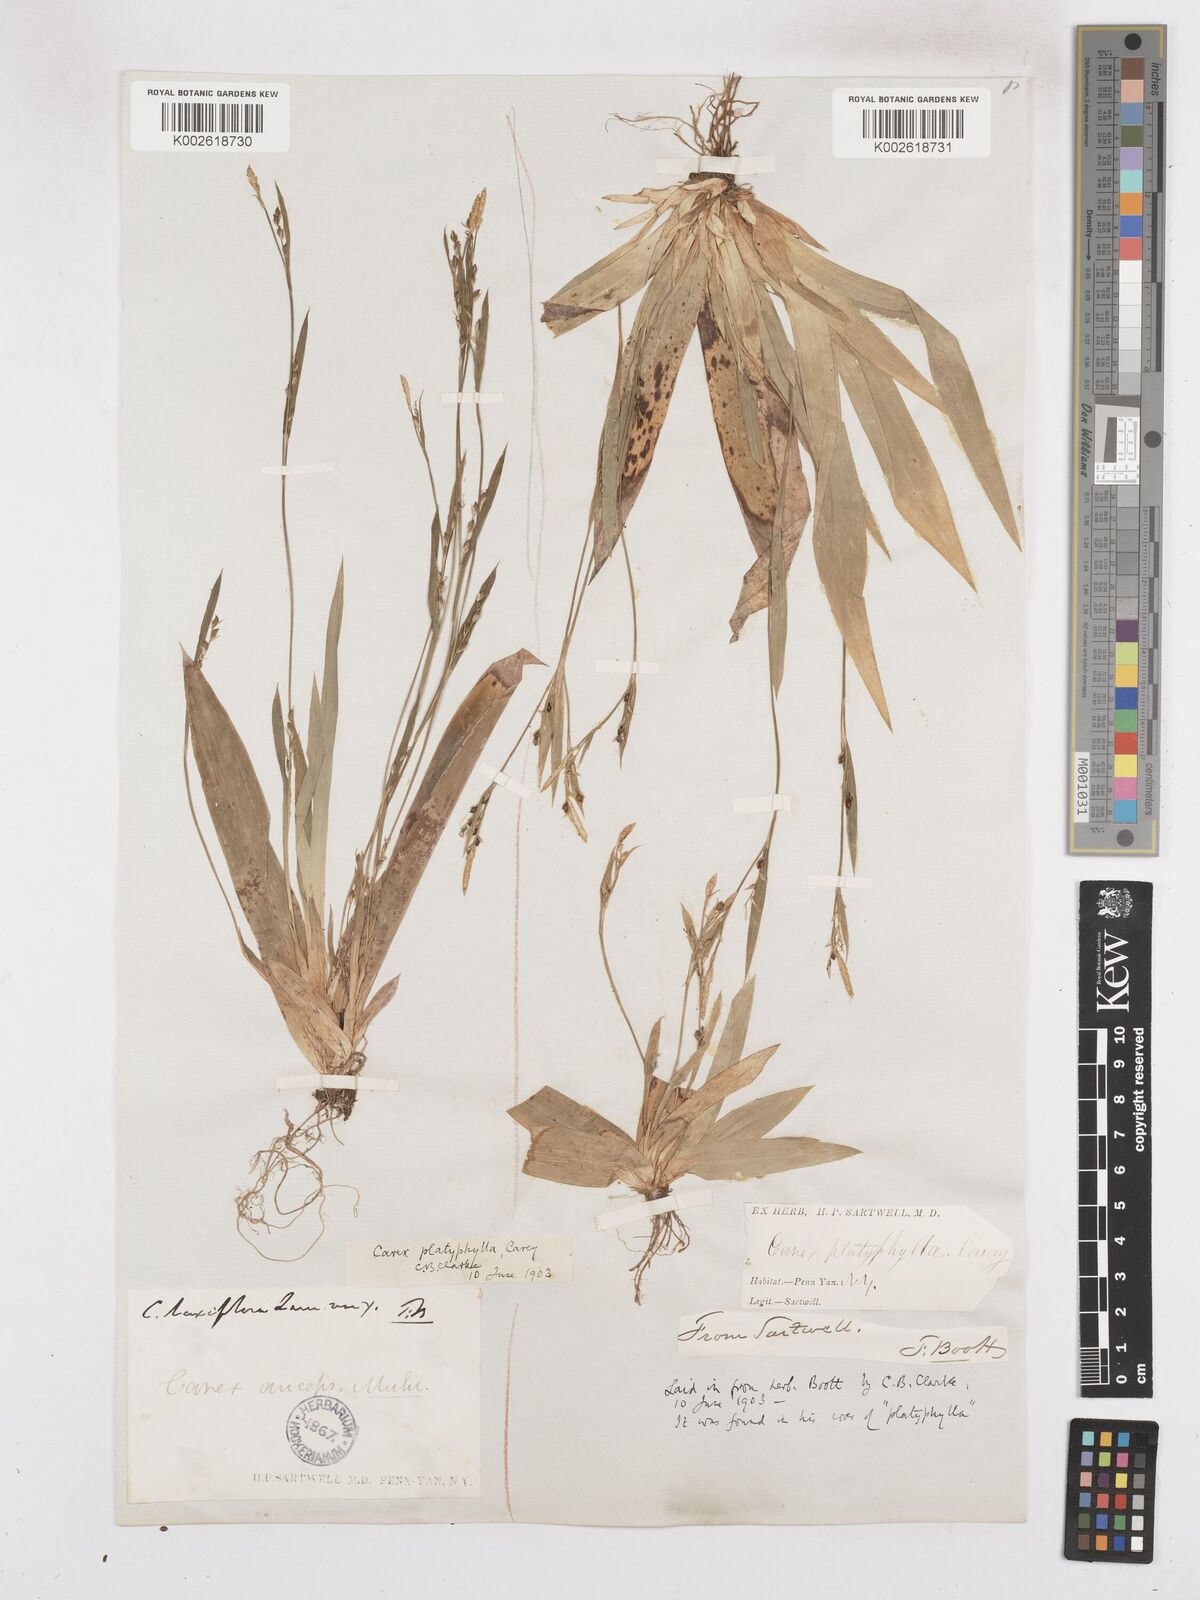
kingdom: Plantae
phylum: Tracheophyta
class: Liliopsida
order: Poales
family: Cyperaceae
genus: Carex
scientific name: Carex platyphylla
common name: Broad-leaved sedge
